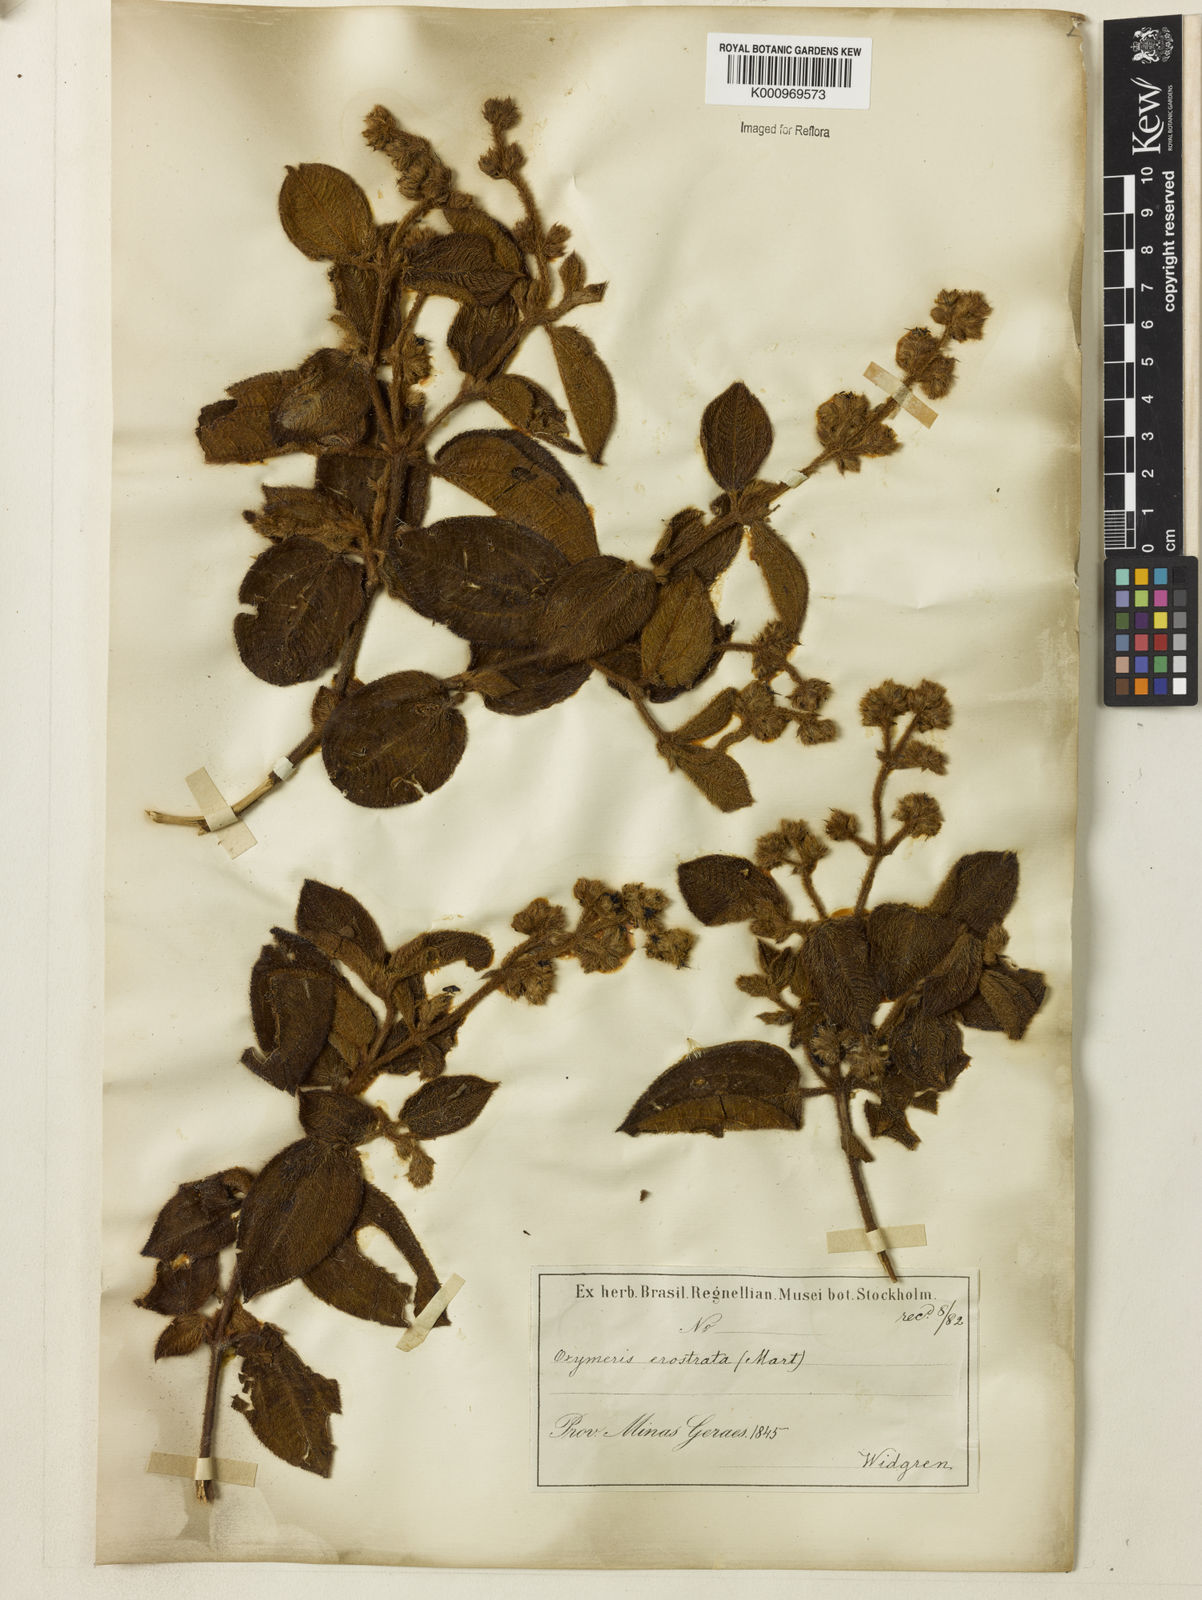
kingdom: Plantae
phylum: Tracheophyta
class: Magnoliopsida
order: Myrtales
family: Melastomataceae
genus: Miconia
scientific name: Miconia erostrata
